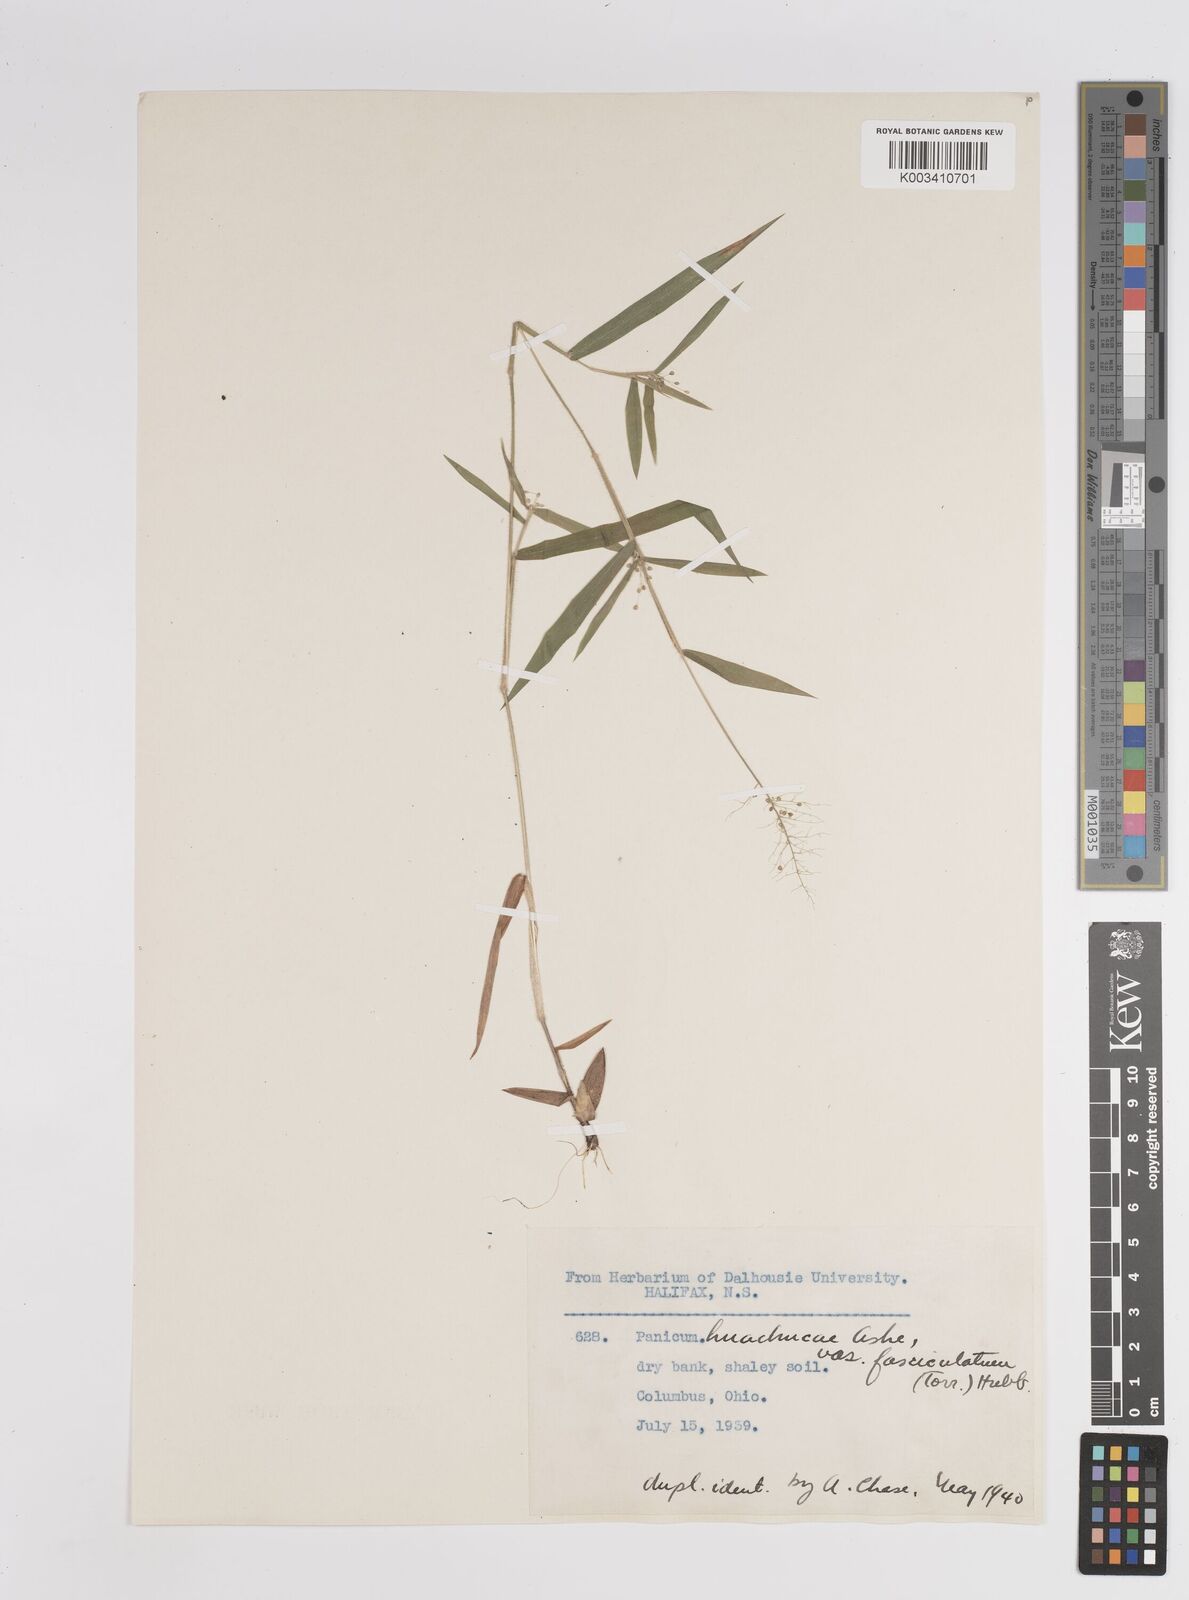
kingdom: Plantae
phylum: Tracheophyta
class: Liliopsida
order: Poales
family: Poaceae
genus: Dichanthelium
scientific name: Dichanthelium lanuginosum
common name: Woolly panicgrass
